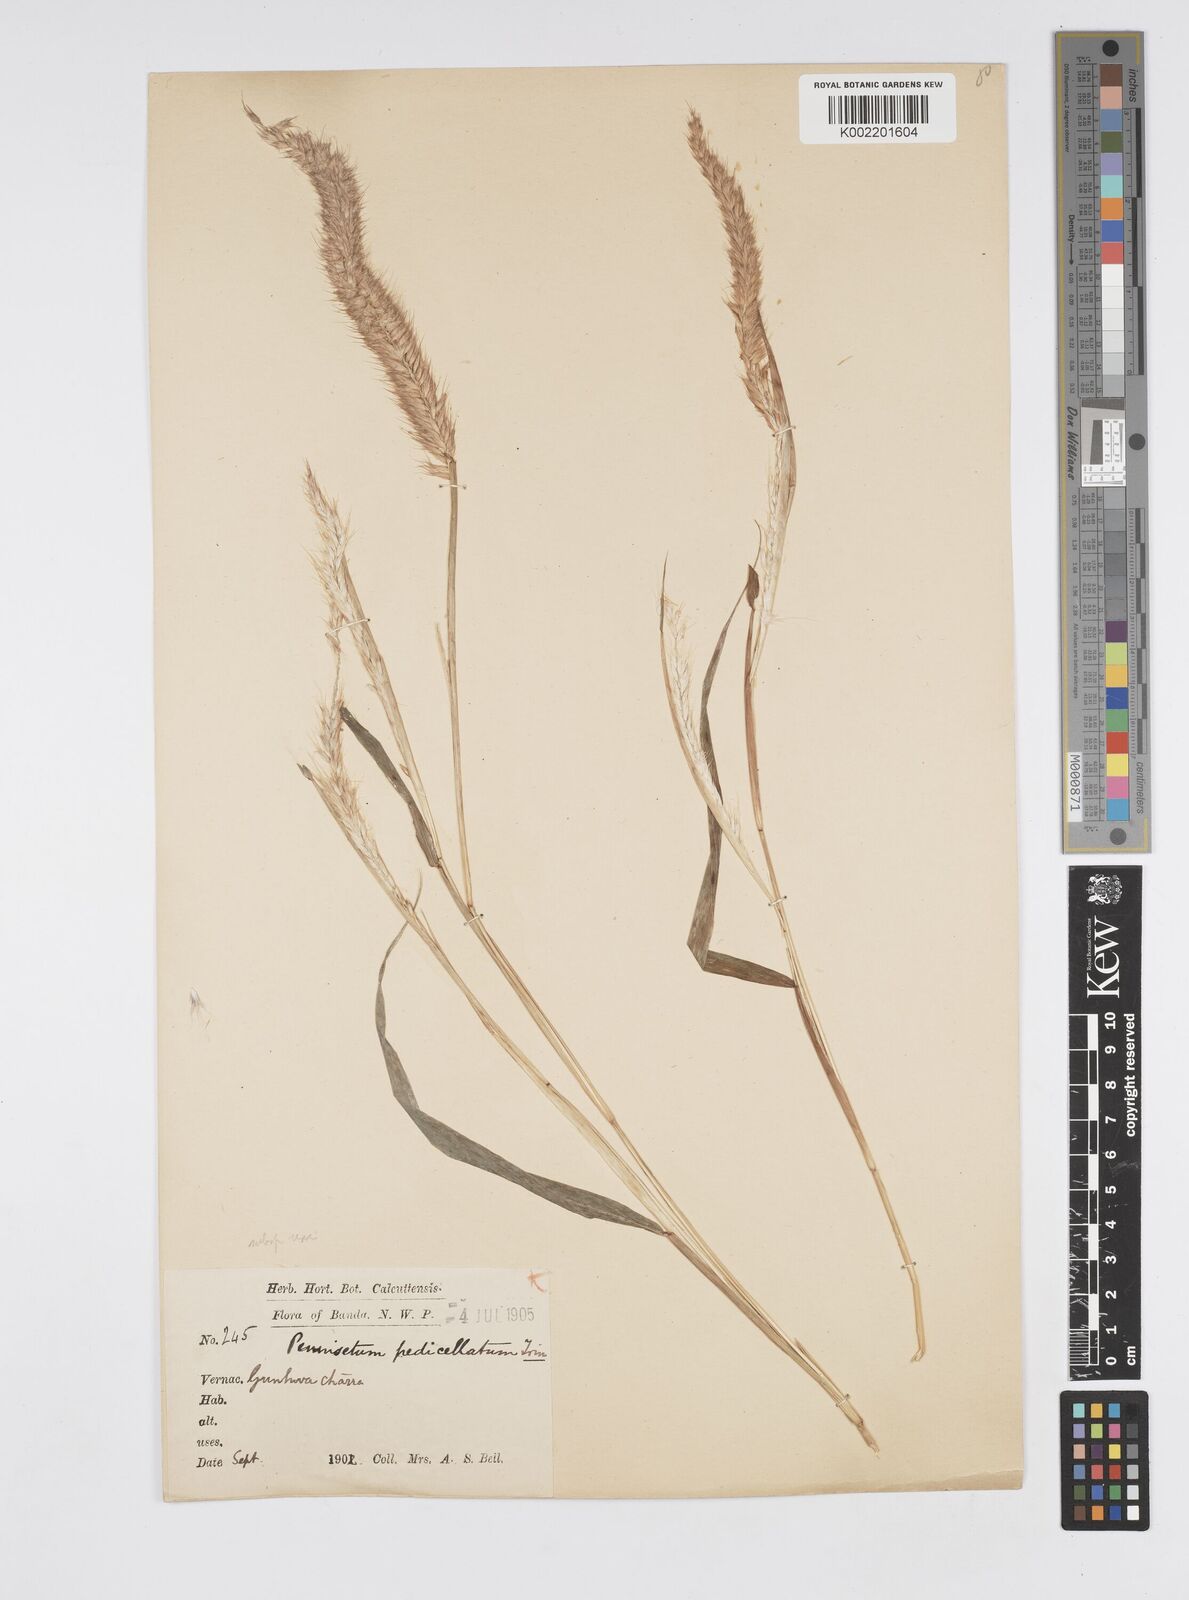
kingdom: Plantae
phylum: Tracheophyta
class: Liliopsida
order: Poales
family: Poaceae
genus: Cenchrus
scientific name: Cenchrus pedicellatus
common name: Hairy fountain grass
